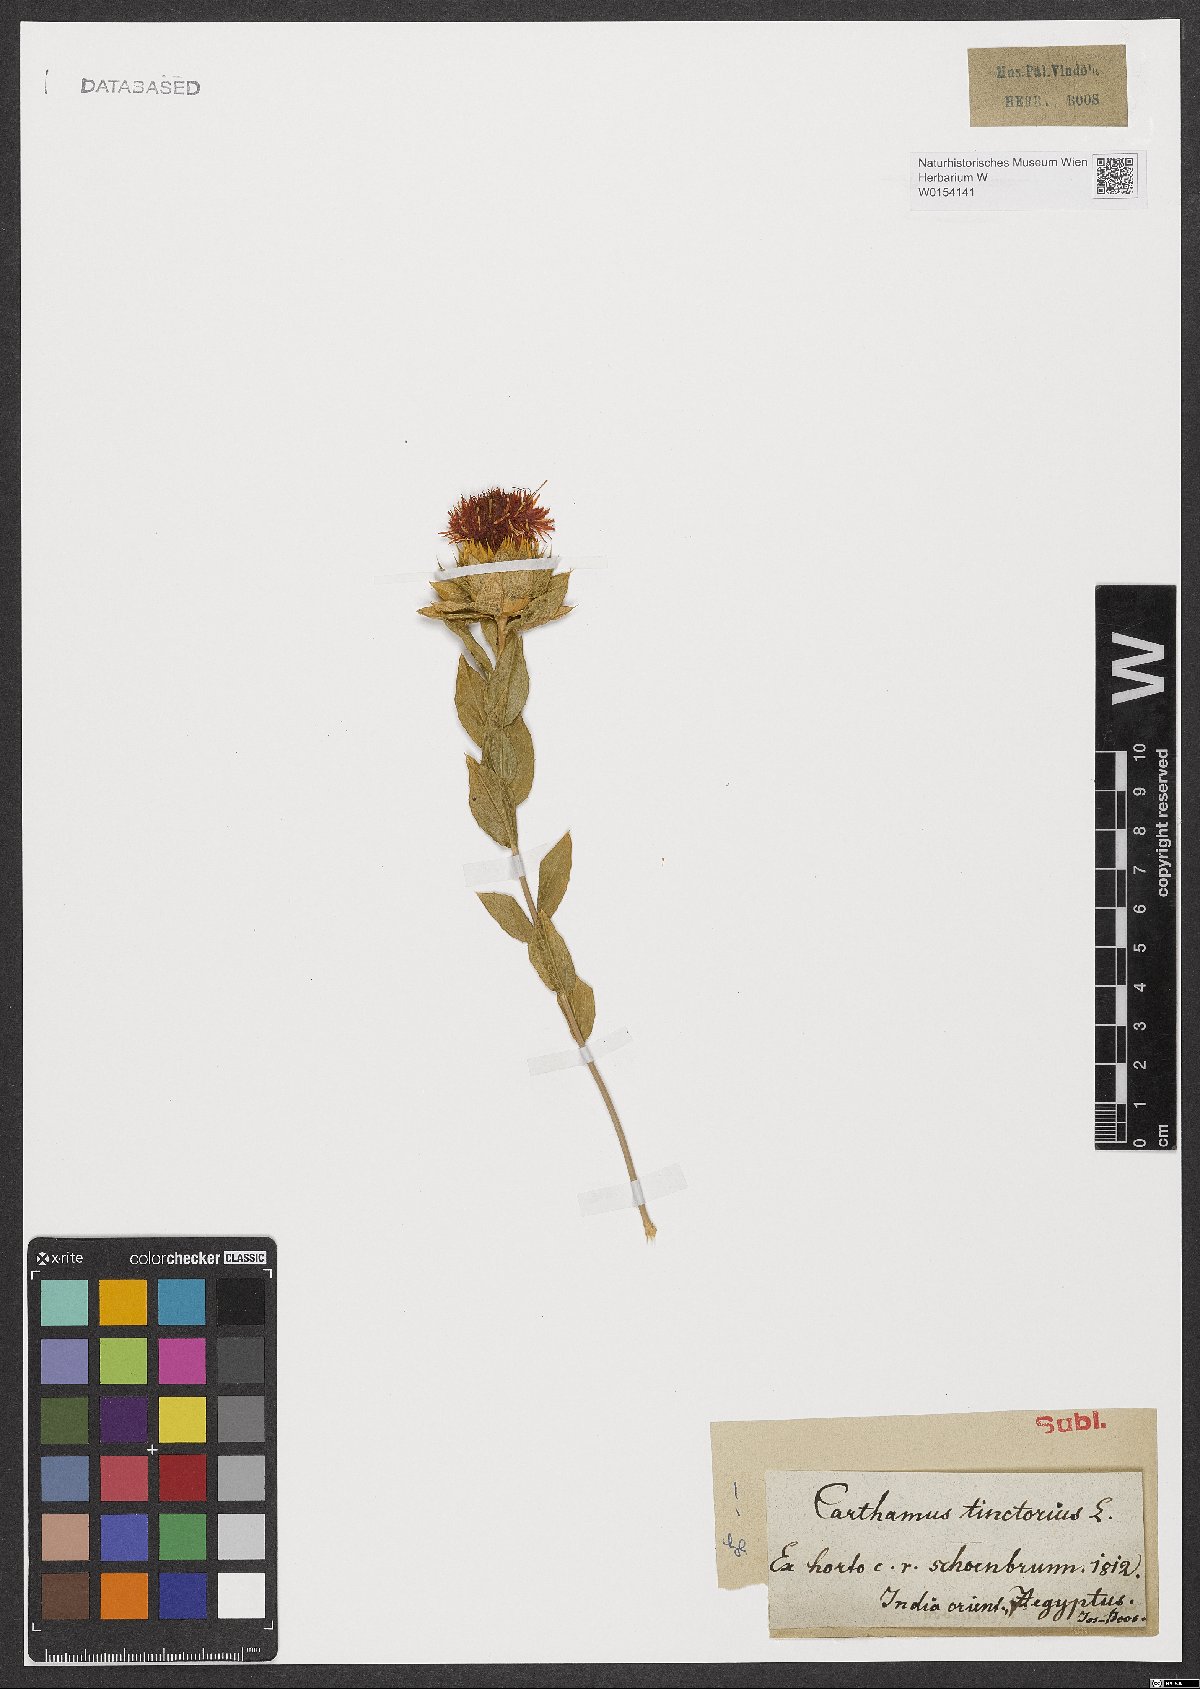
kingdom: Plantae
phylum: Tracheophyta
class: Magnoliopsida
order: Asterales
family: Asteraceae
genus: Carthamus
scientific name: Carthamus tinctorius
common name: Safflower
